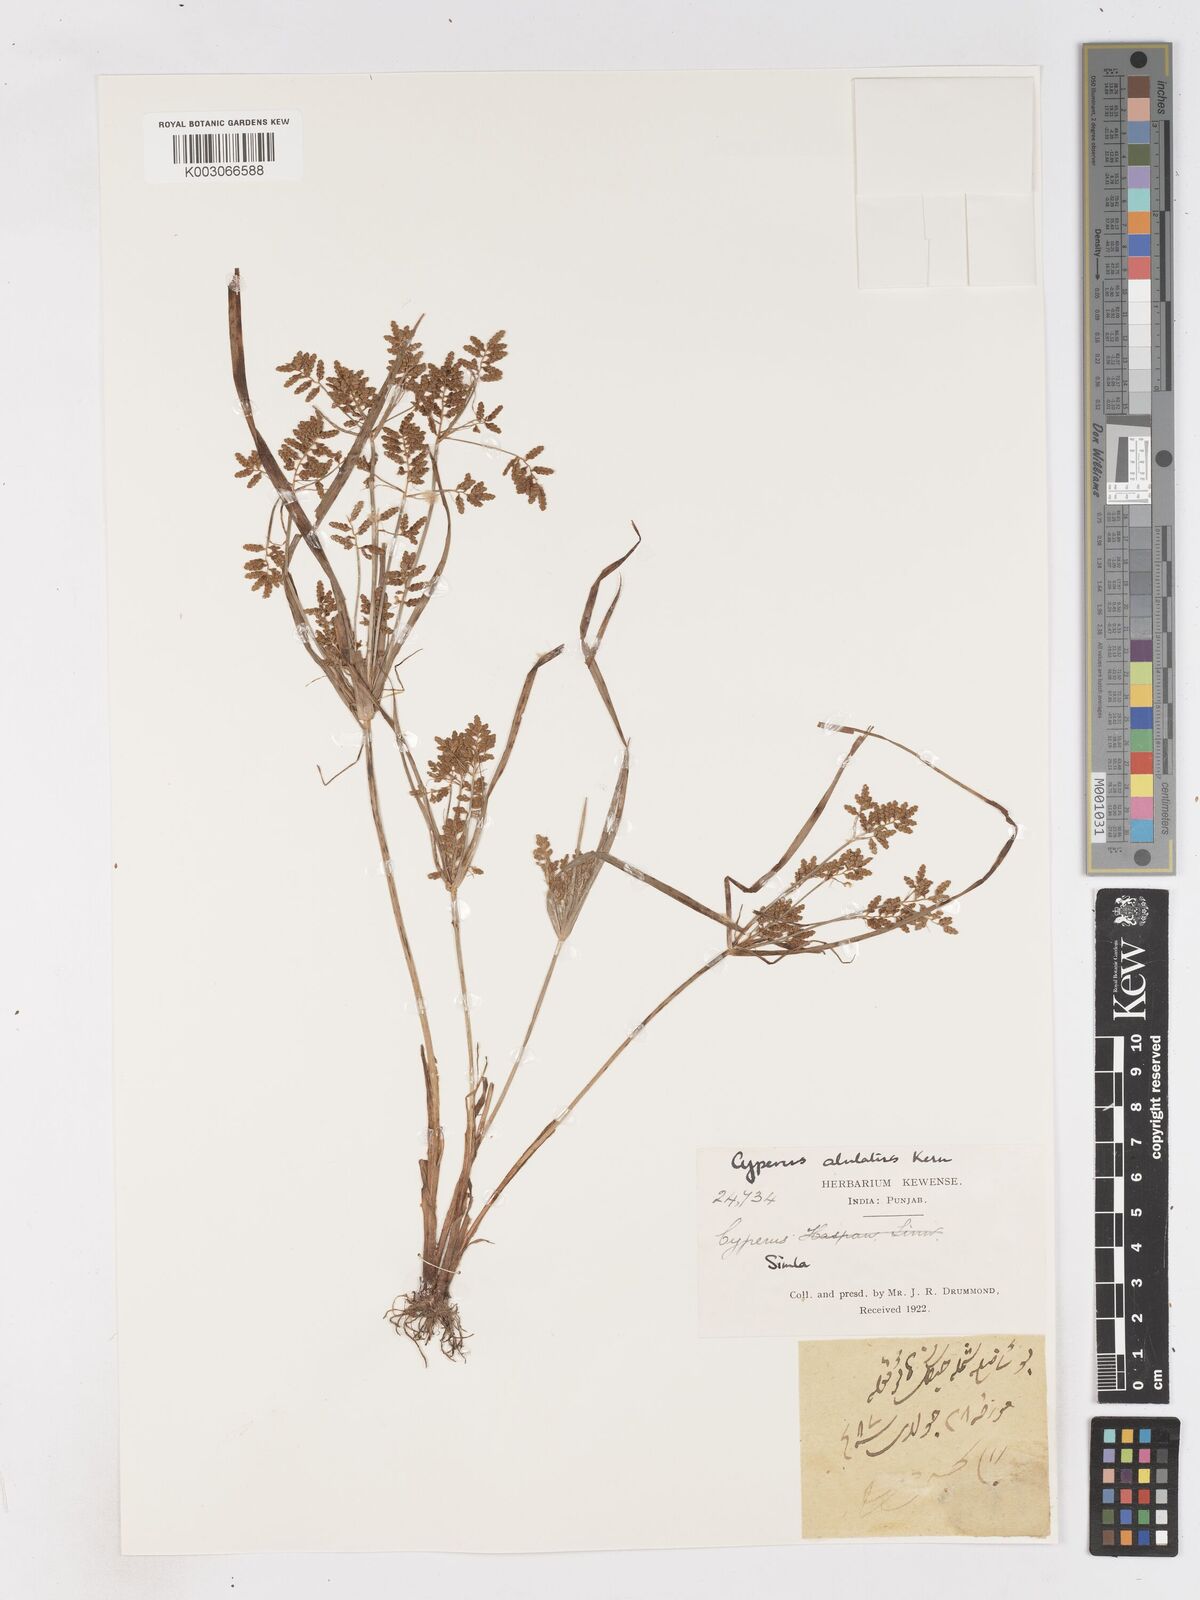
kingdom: Plantae
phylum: Tracheophyta
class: Liliopsida
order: Poales
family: Cyperaceae
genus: Cyperus
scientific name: Cyperus alulatus
